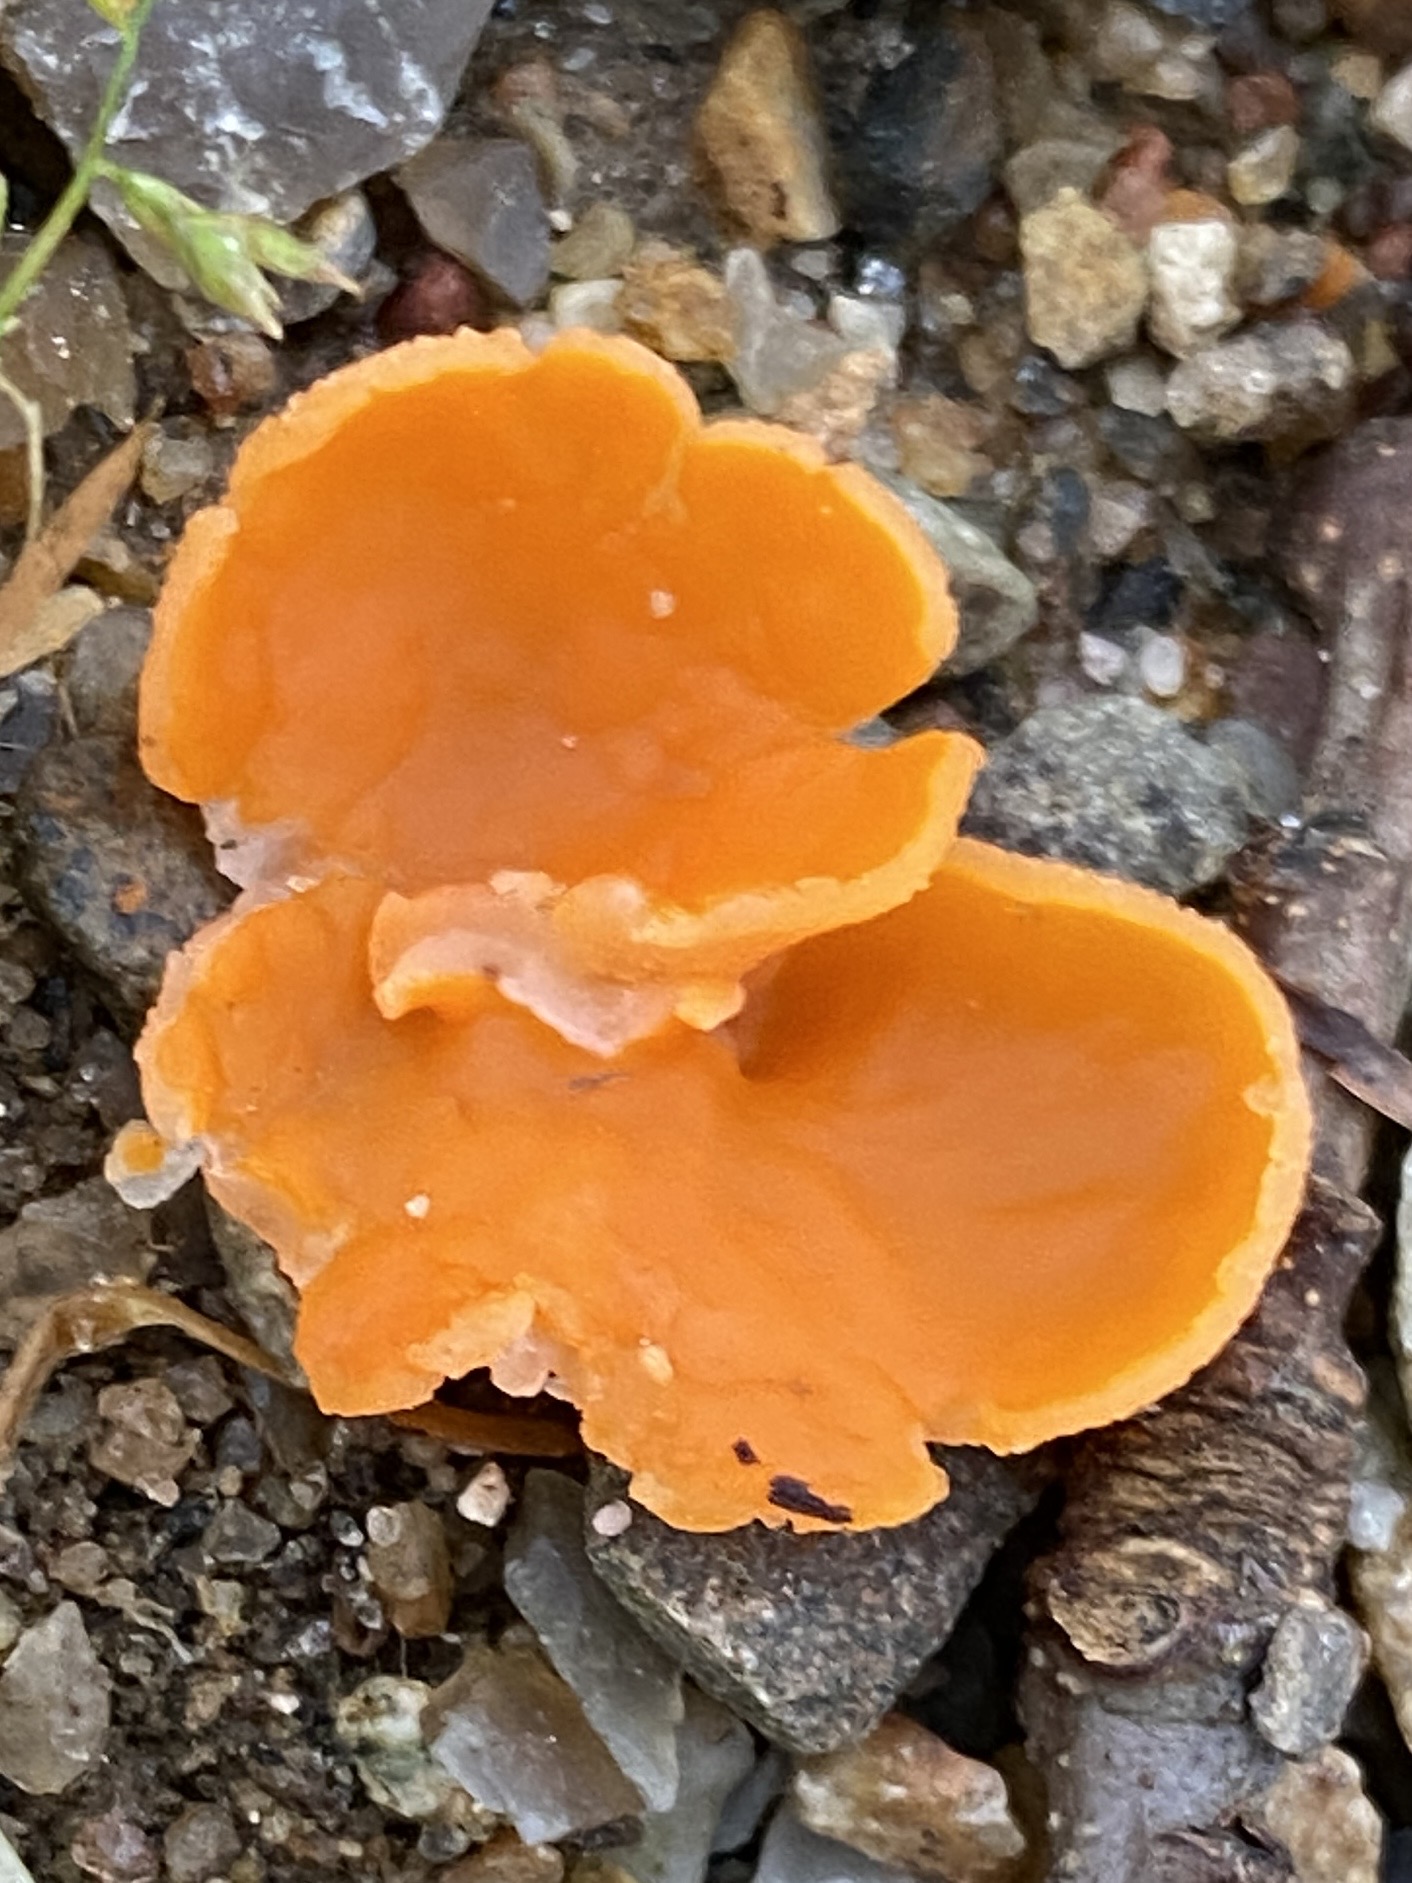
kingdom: Fungi
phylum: Ascomycota
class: Pezizomycetes
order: Pezizales
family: Pyronemataceae
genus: Aleuria
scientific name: Aleuria aurantia
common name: almindelig orangebæger
